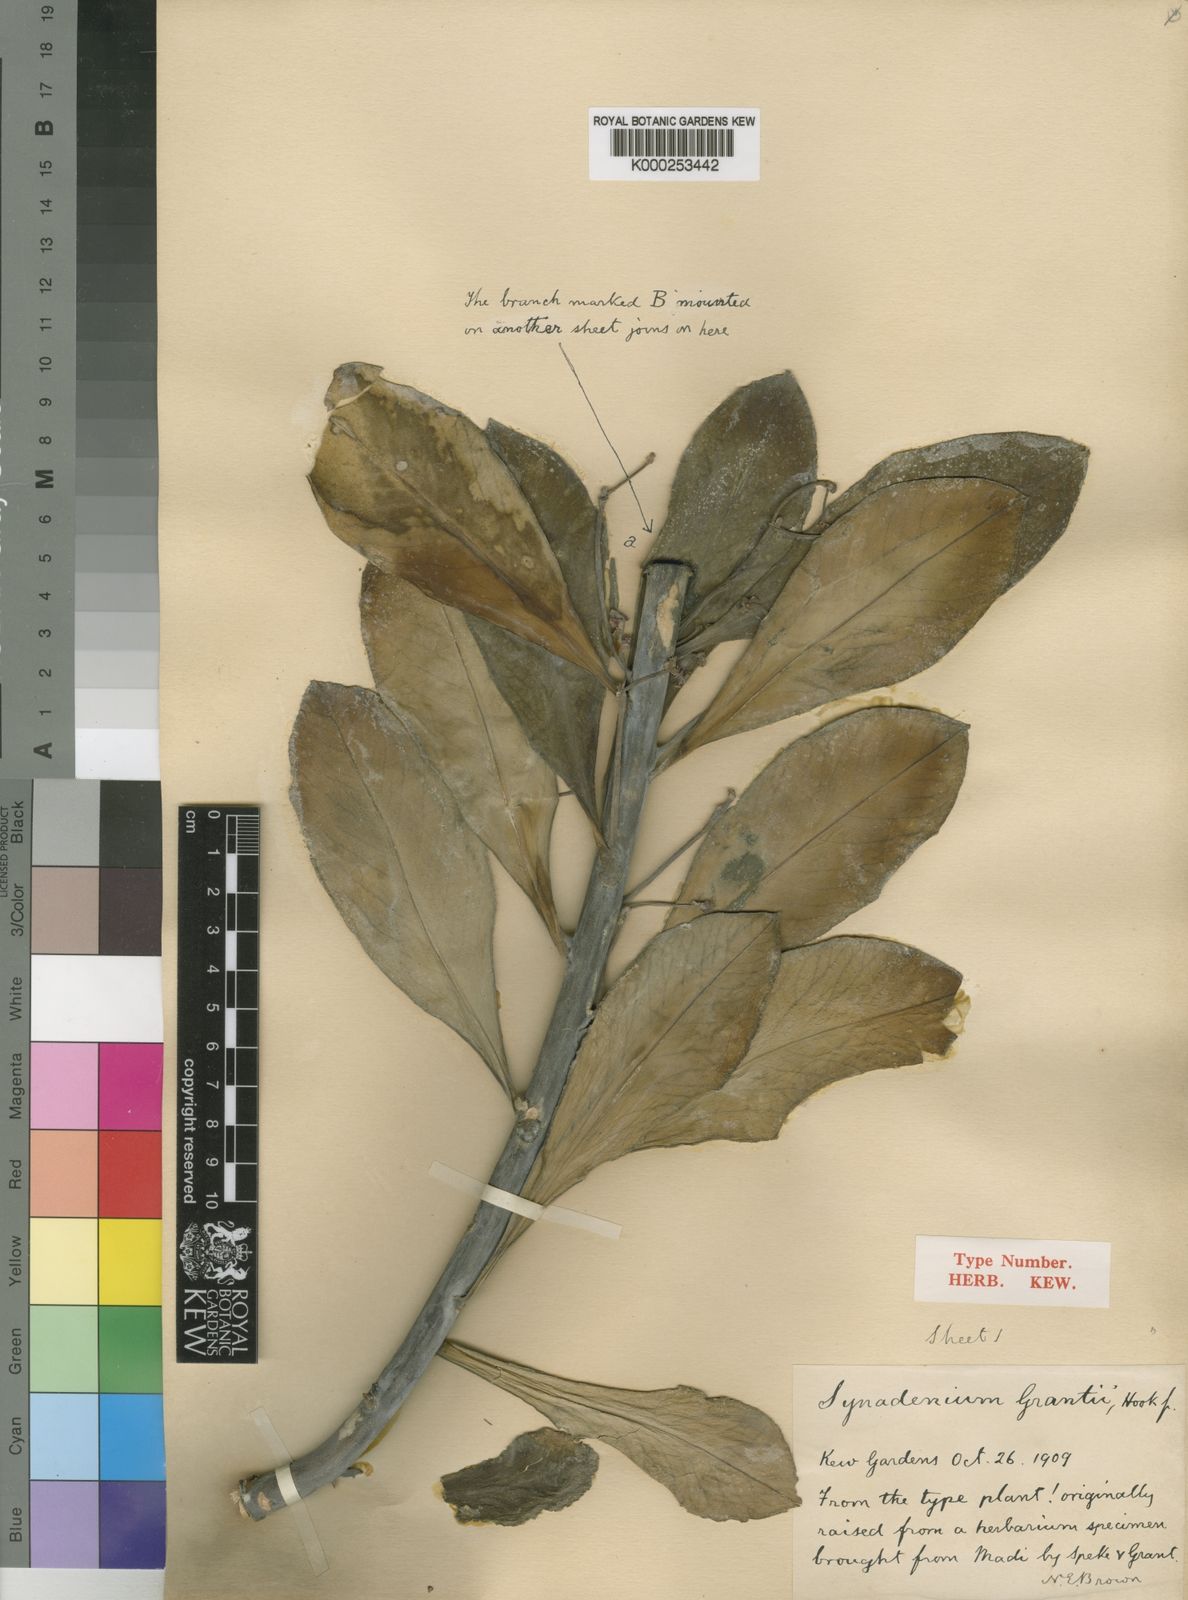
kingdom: Plantae
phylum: Tracheophyta
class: Magnoliopsida
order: Malpighiales
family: Euphorbiaceae
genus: Euphorbia
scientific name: Euphorbia umbellata
